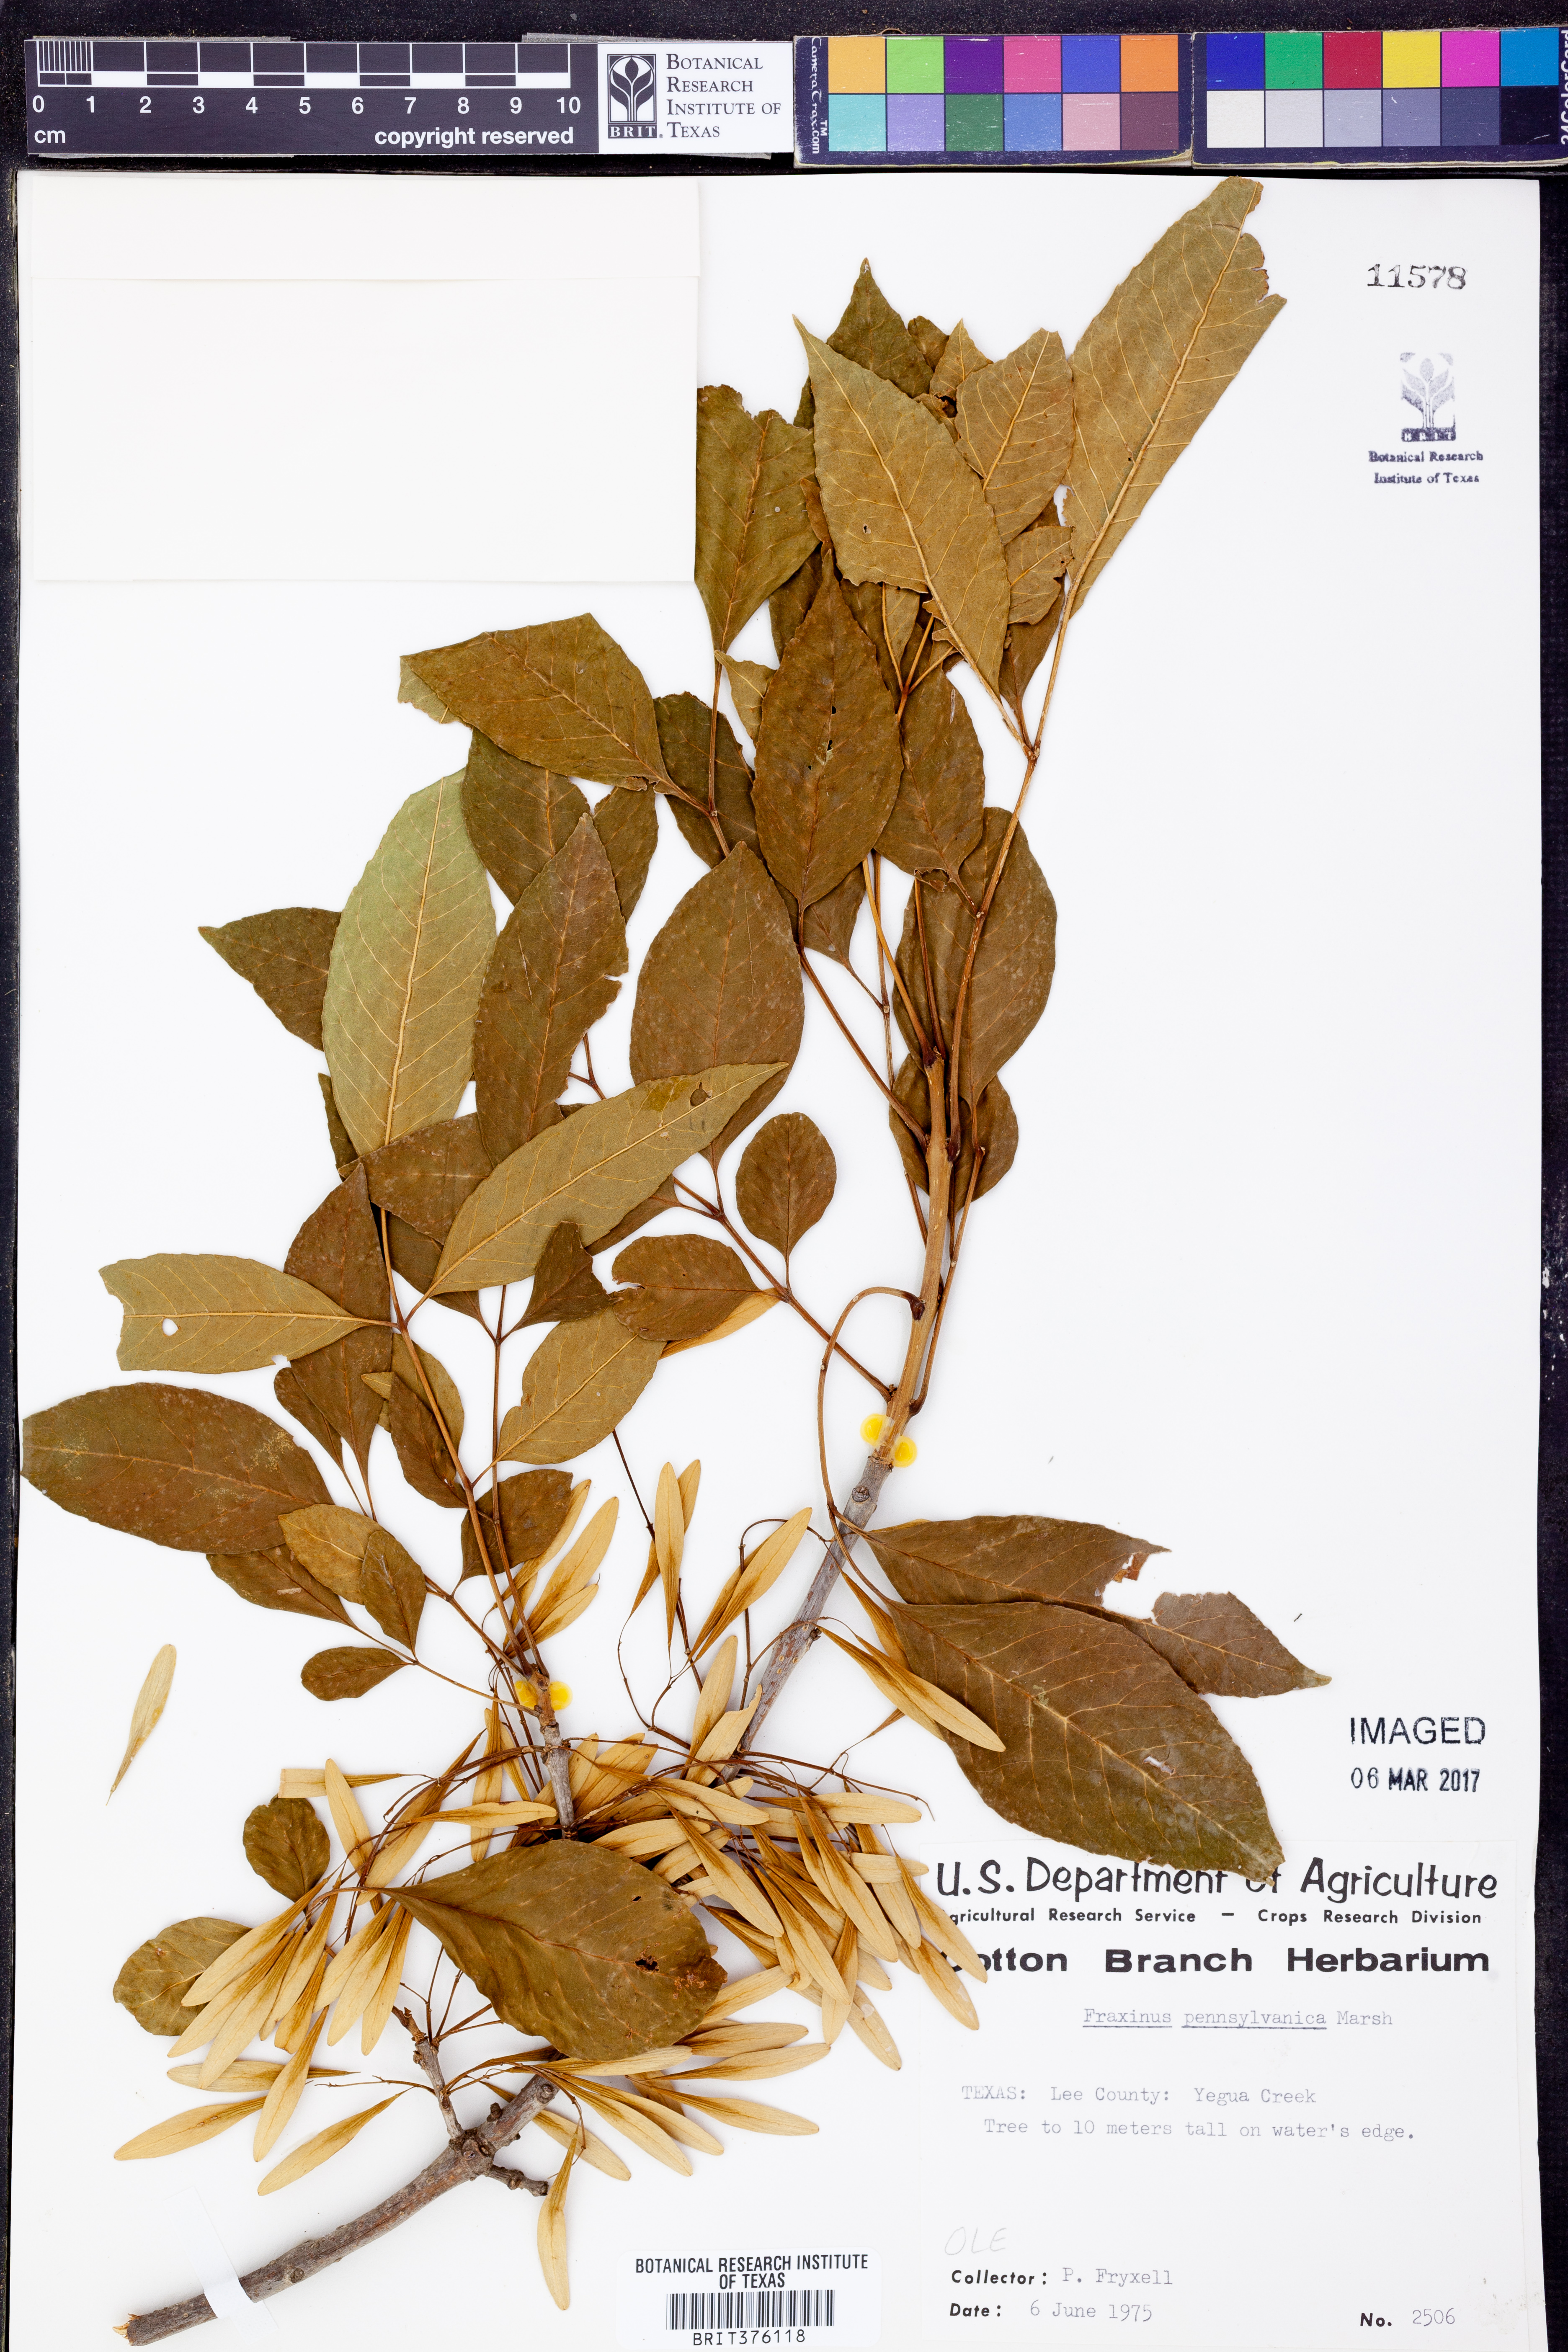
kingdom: Plantae
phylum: Tracheophyta
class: Magnoliopsida
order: Lamiales
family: Oleaceae
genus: Fraxinus
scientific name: Fraxinus pennsylvanica
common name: Green ash
